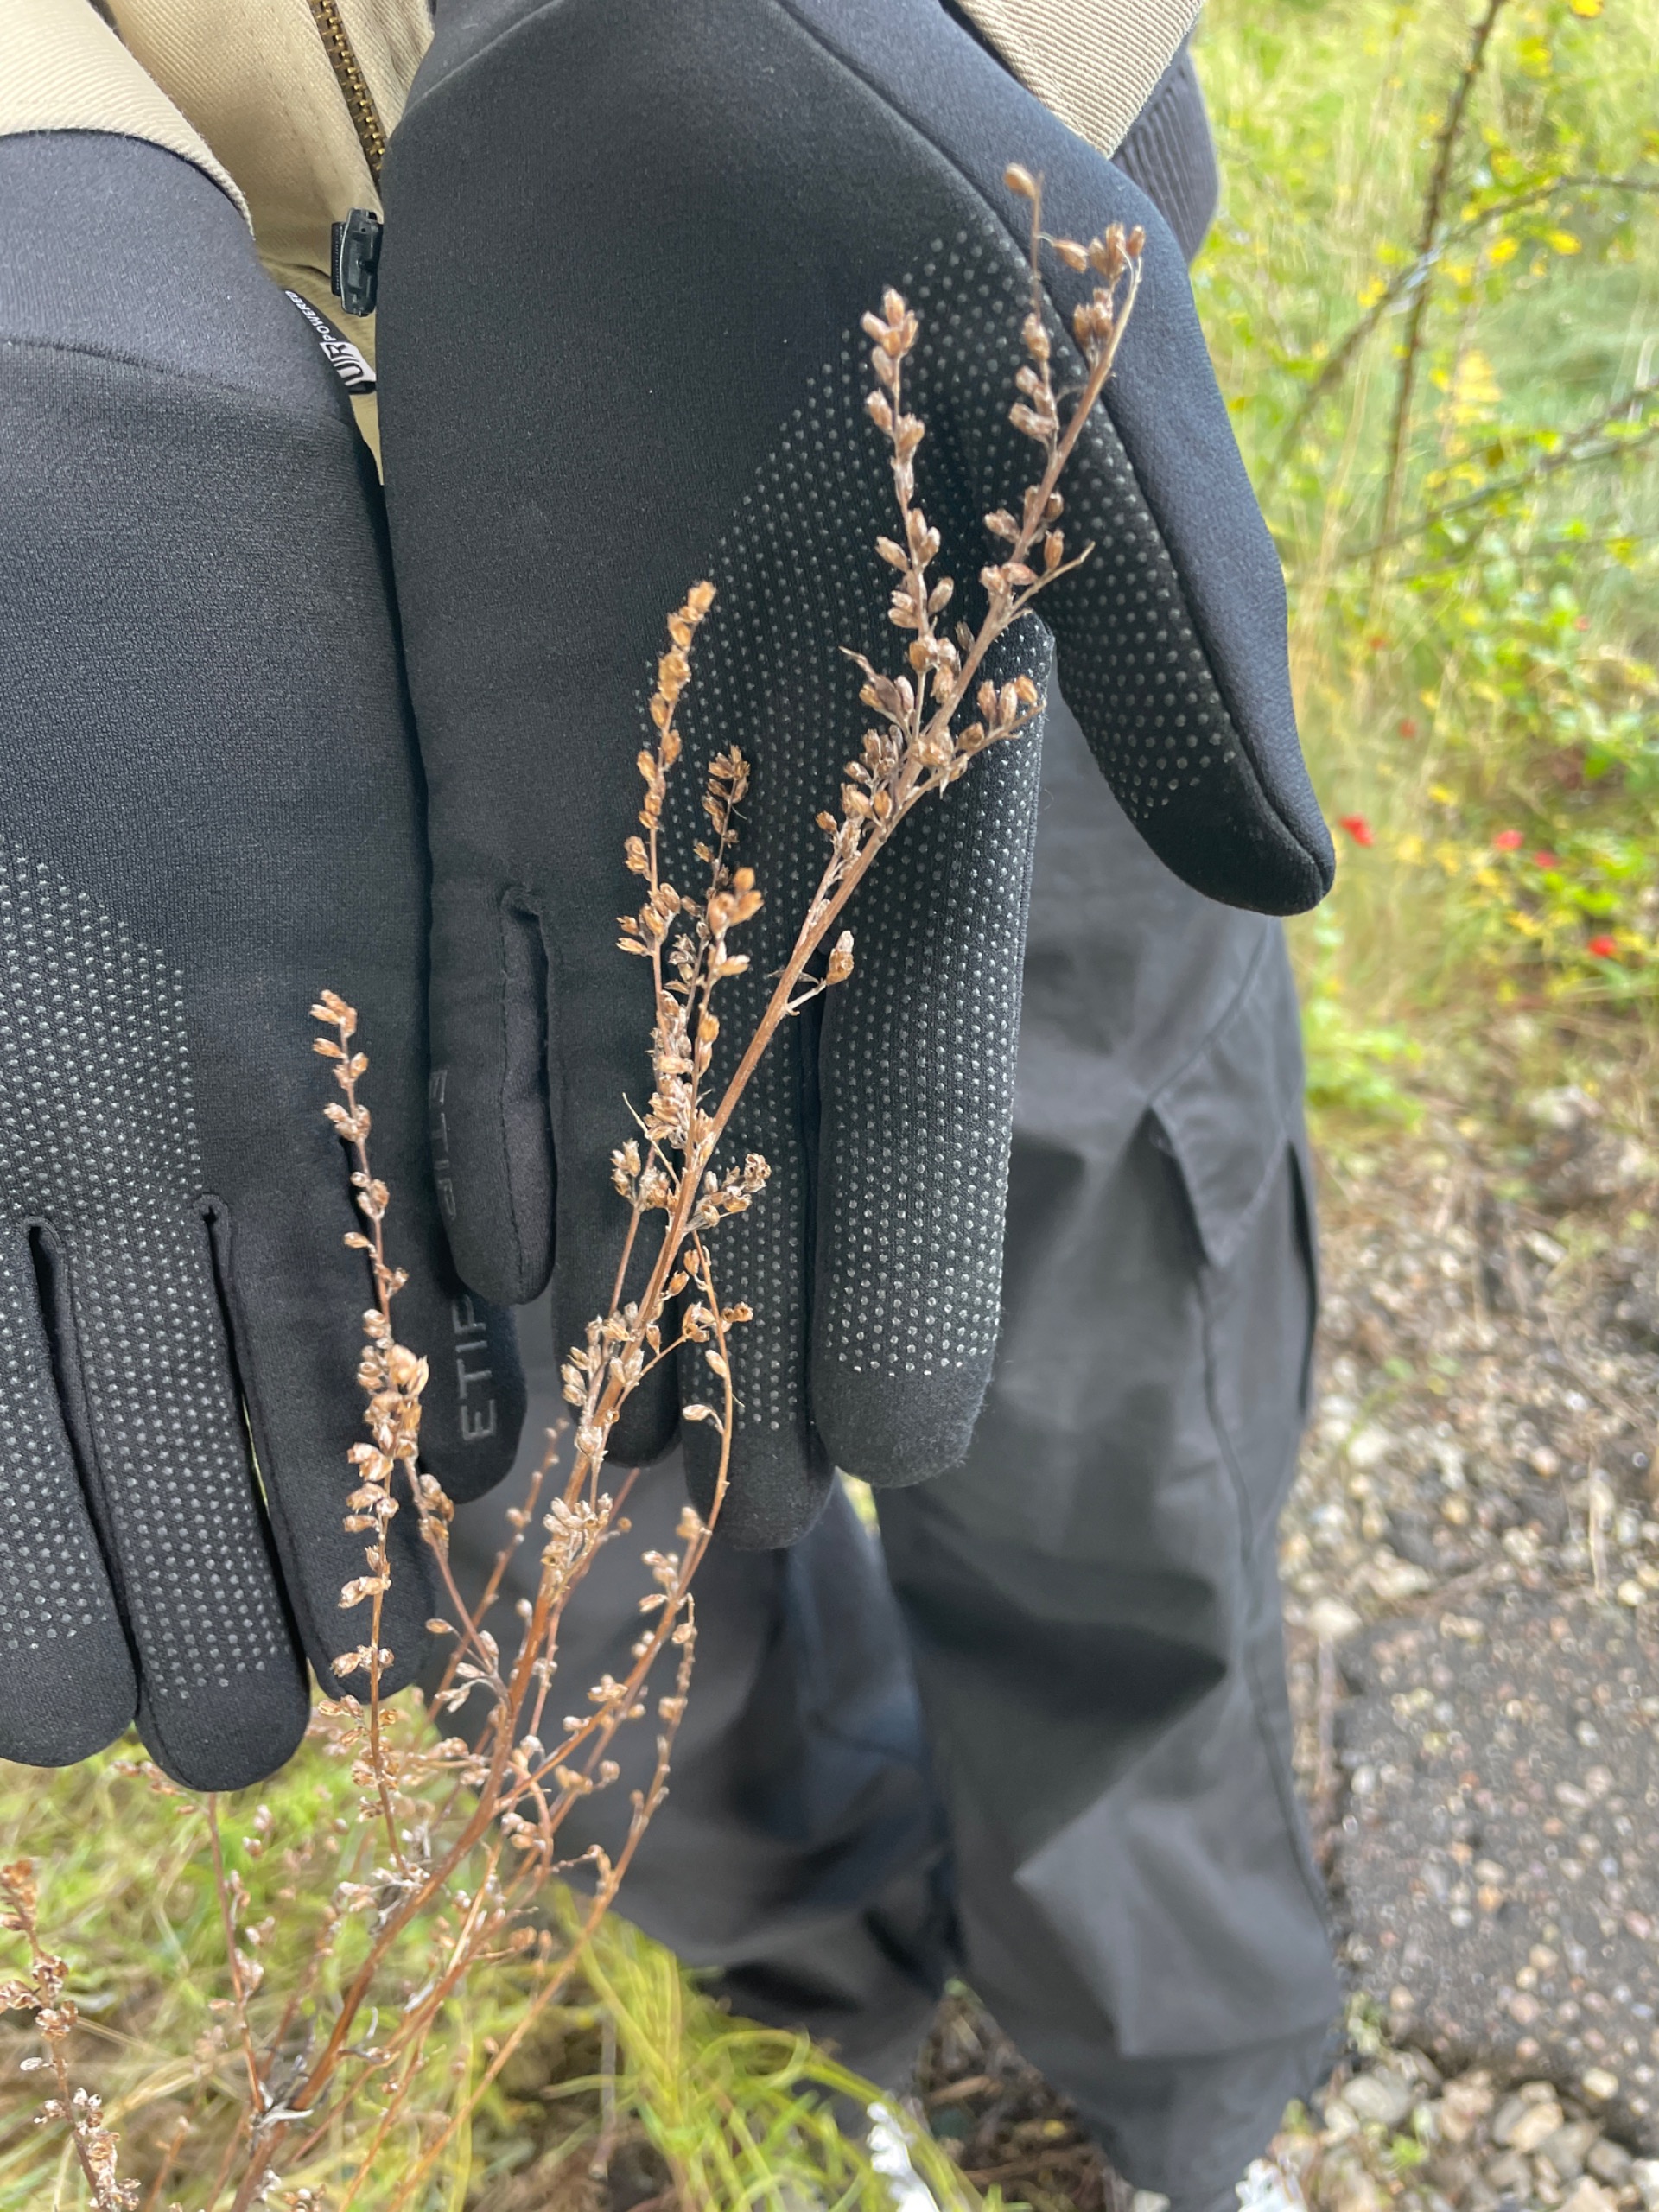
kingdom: Plantae
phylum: Tracheophyta
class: Magnoliopsida
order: Asterales
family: Asteraceae
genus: Artemisia
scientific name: Artemisia vulgaris
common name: Grå-bynke
